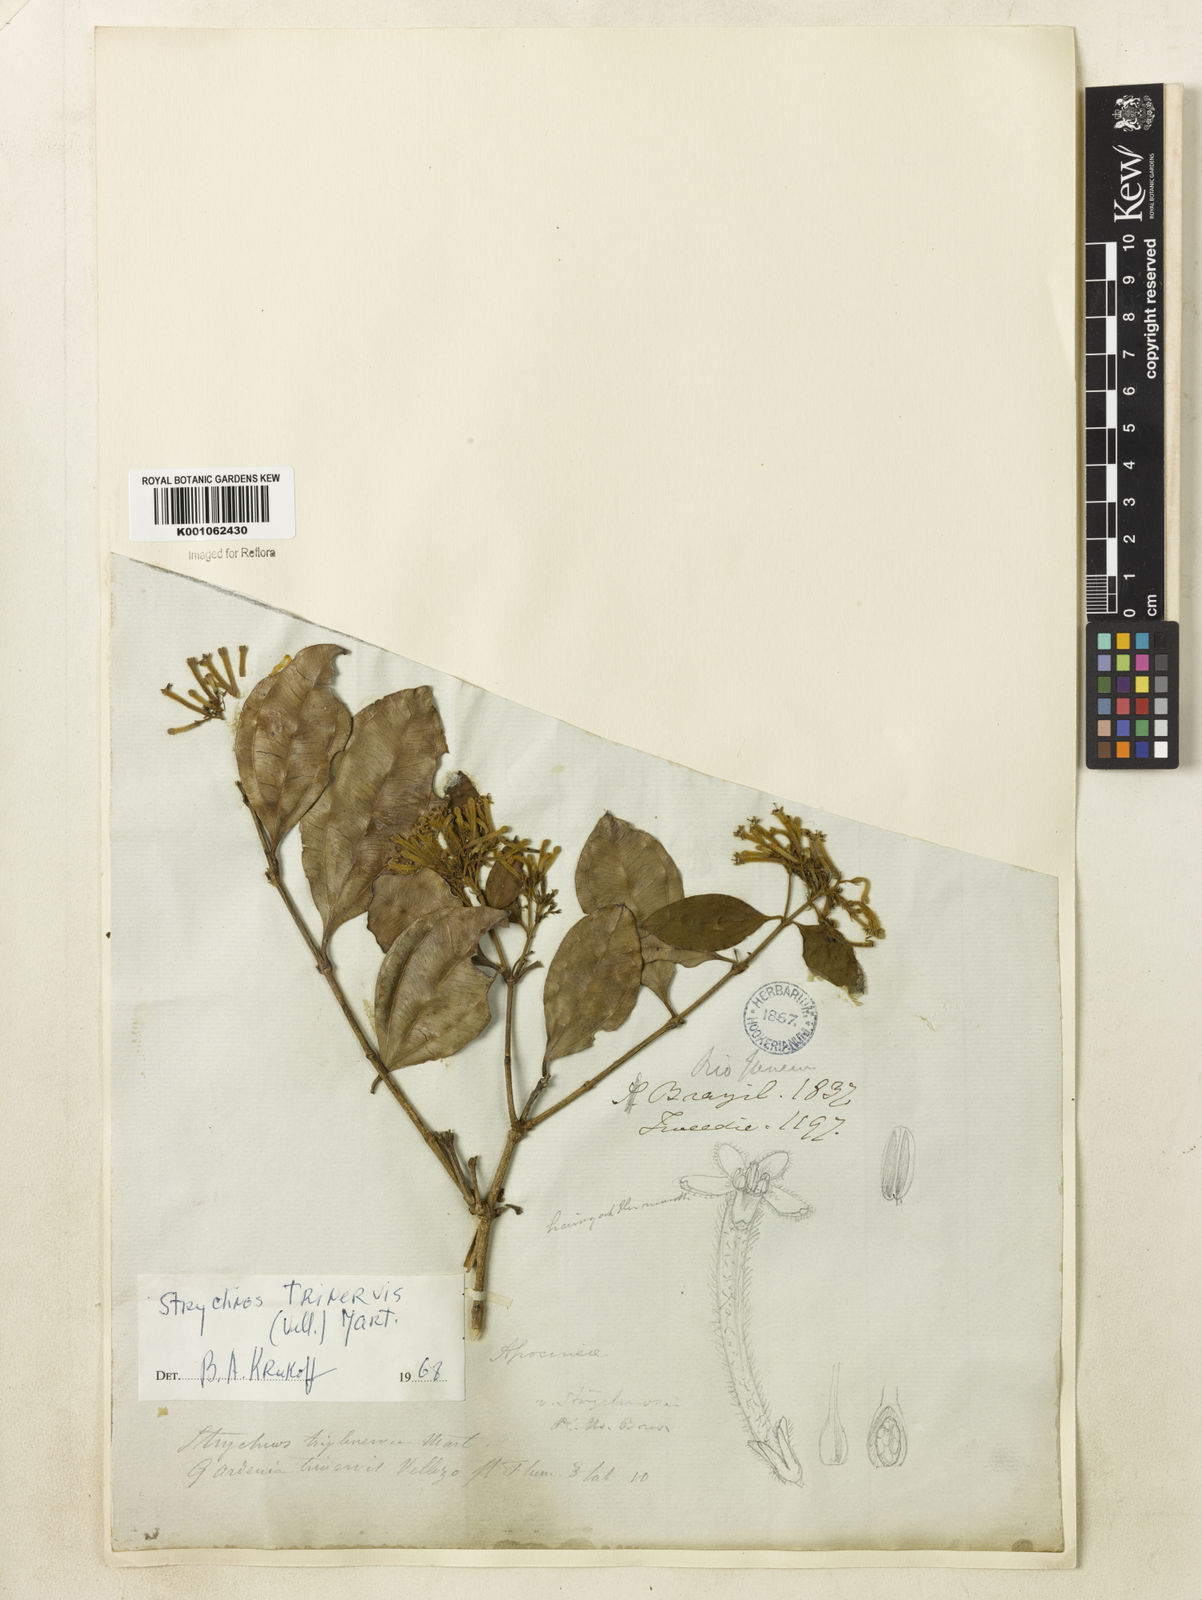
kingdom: Plantae
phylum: Tracheophyta
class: Magnoliopsida
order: Gentianales
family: Loganiaceae
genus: Strychnos
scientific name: Strychnos
